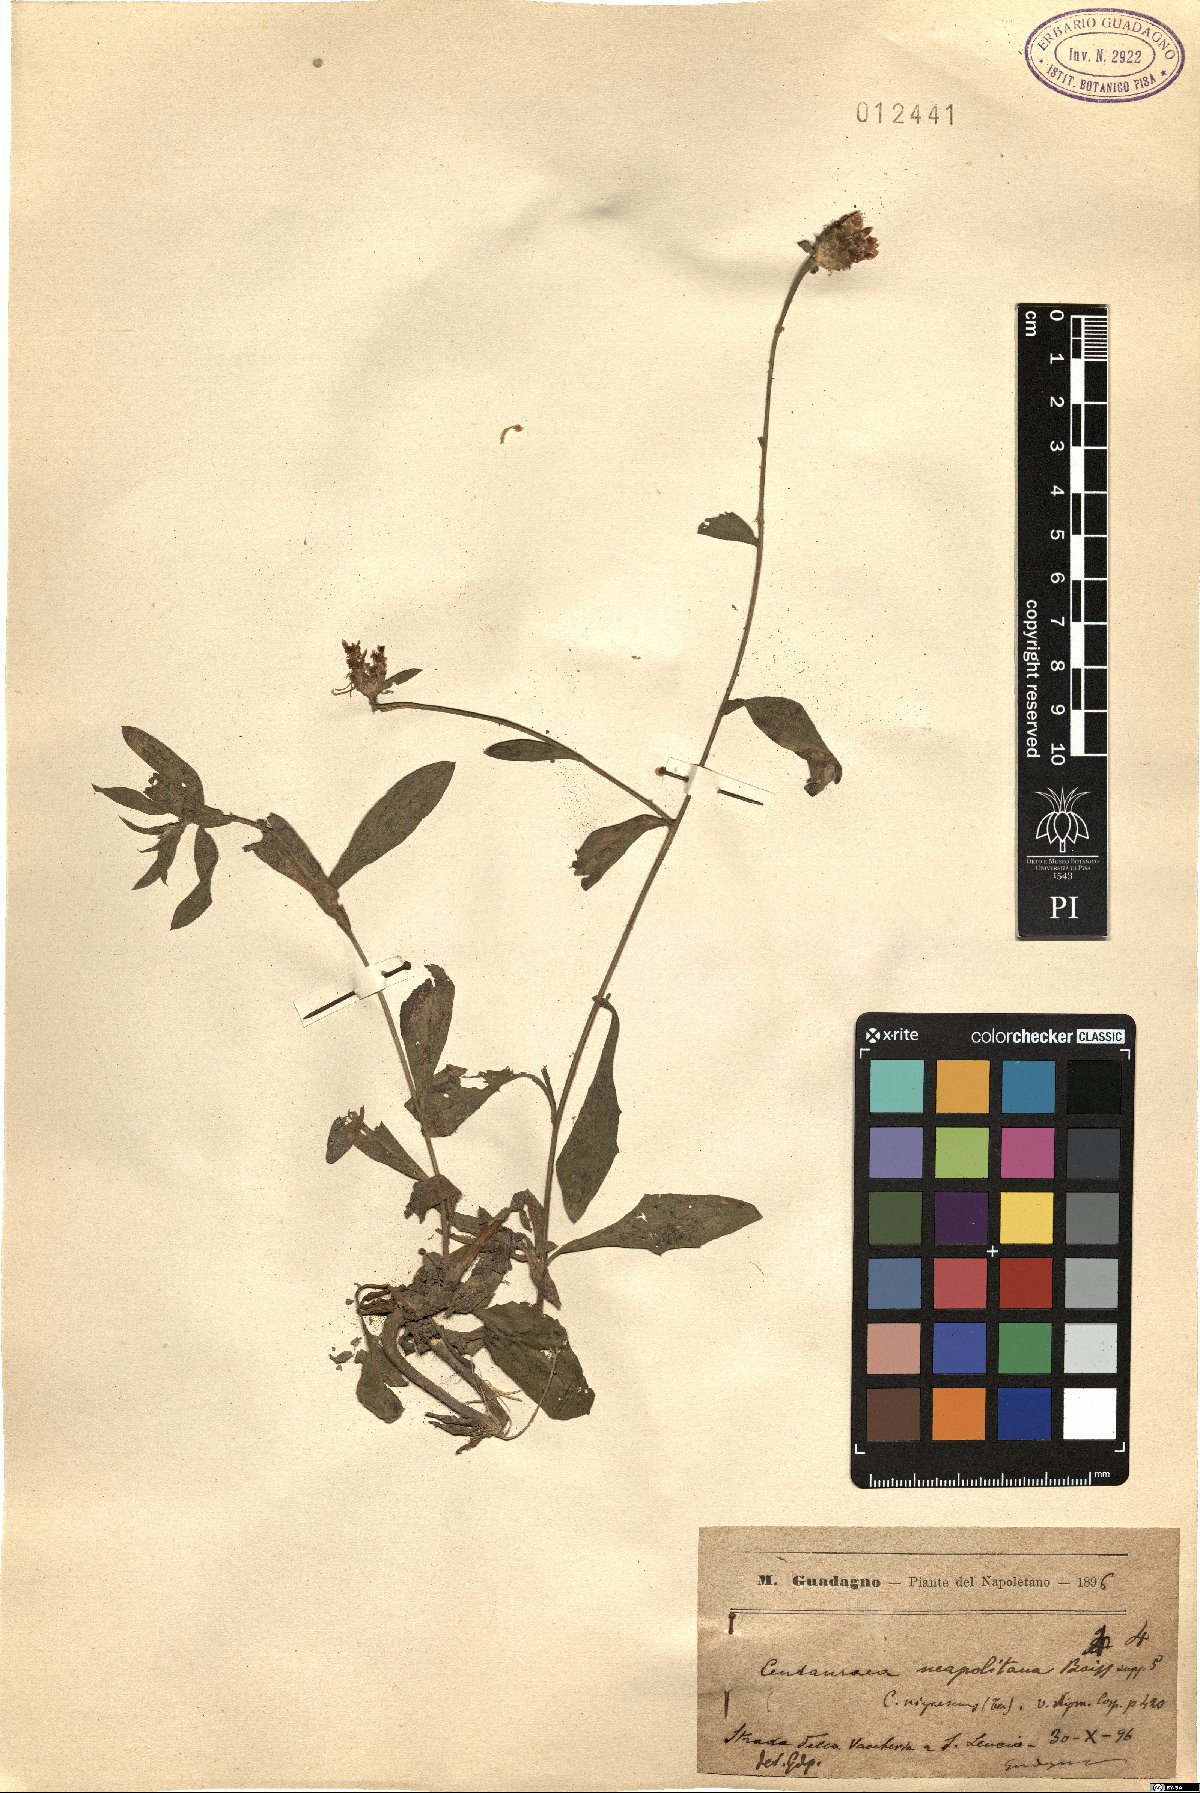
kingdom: Plantae
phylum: Tracheophyta
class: Magnoliopsida
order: Asterales
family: Asteraceae
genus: Centaurea
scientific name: Centaurea nigrescens
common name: Tyrol knapweed
